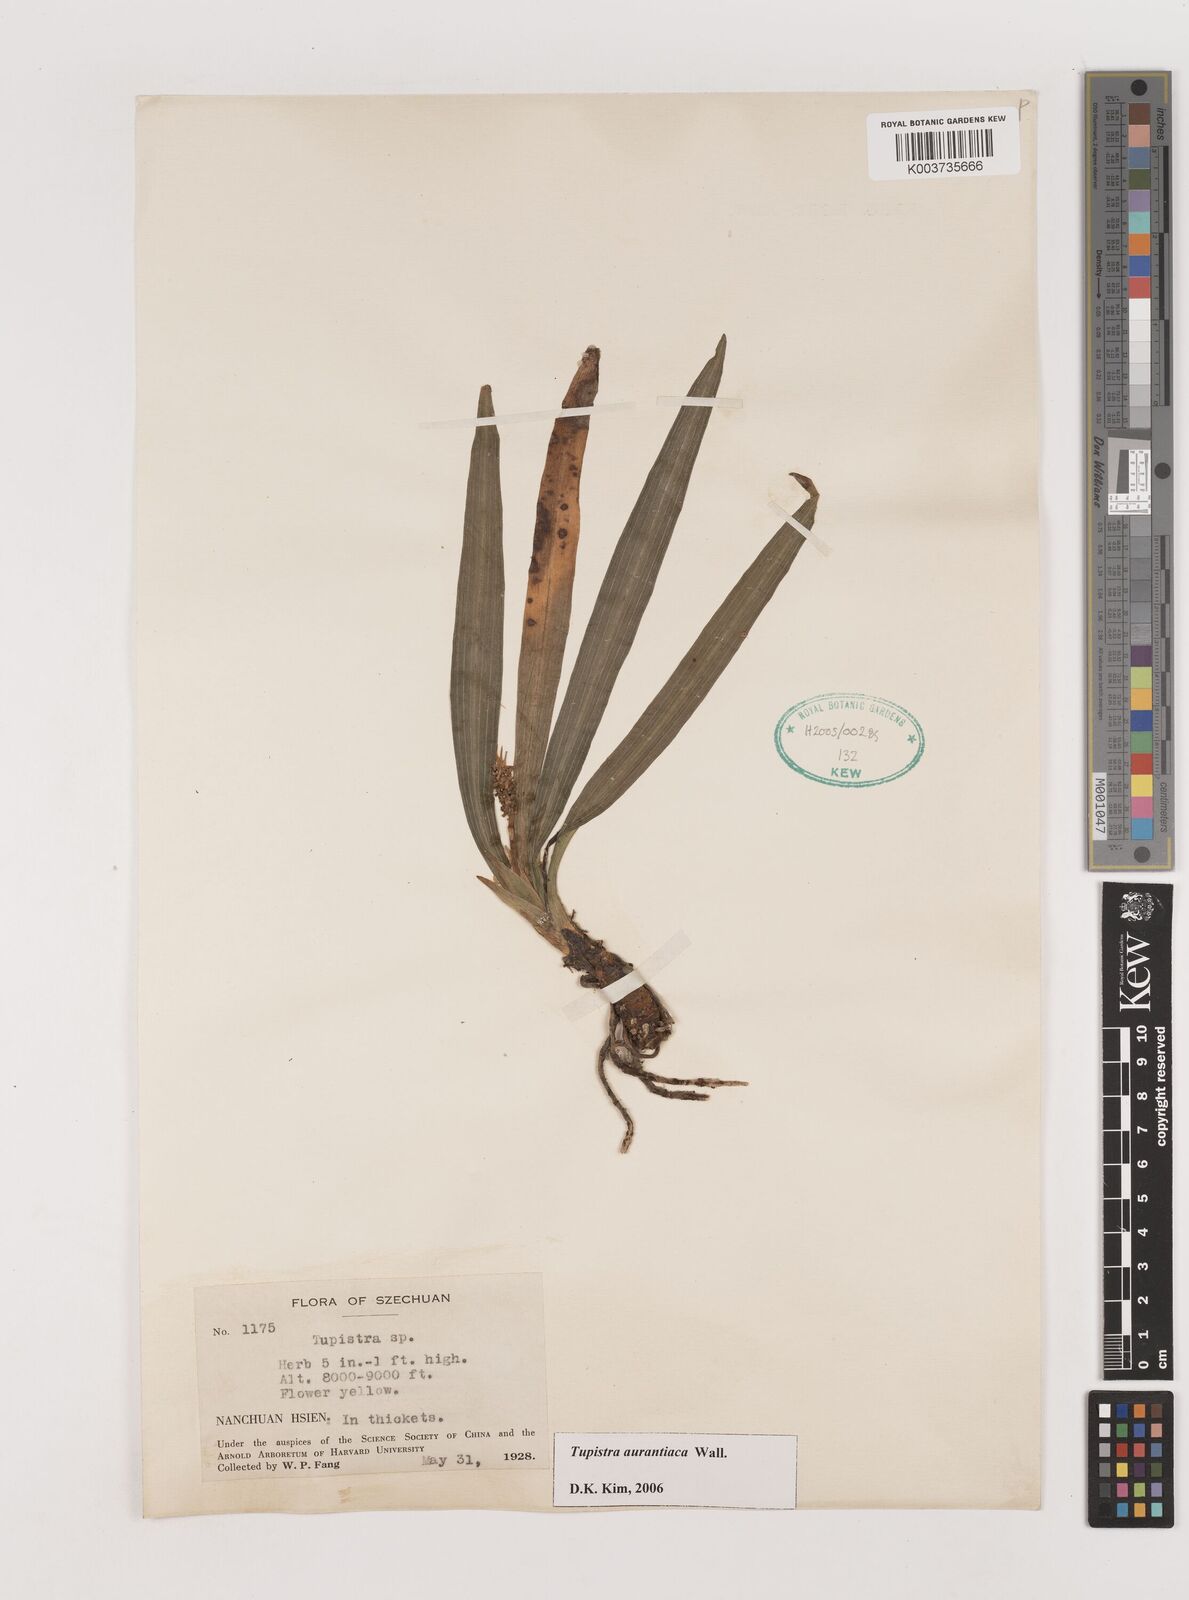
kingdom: Plantae
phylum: Tracheophyta
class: Liliopsida
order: Asparagales
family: Asparagaceae
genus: Rohdea
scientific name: Rohdea nepalensis
